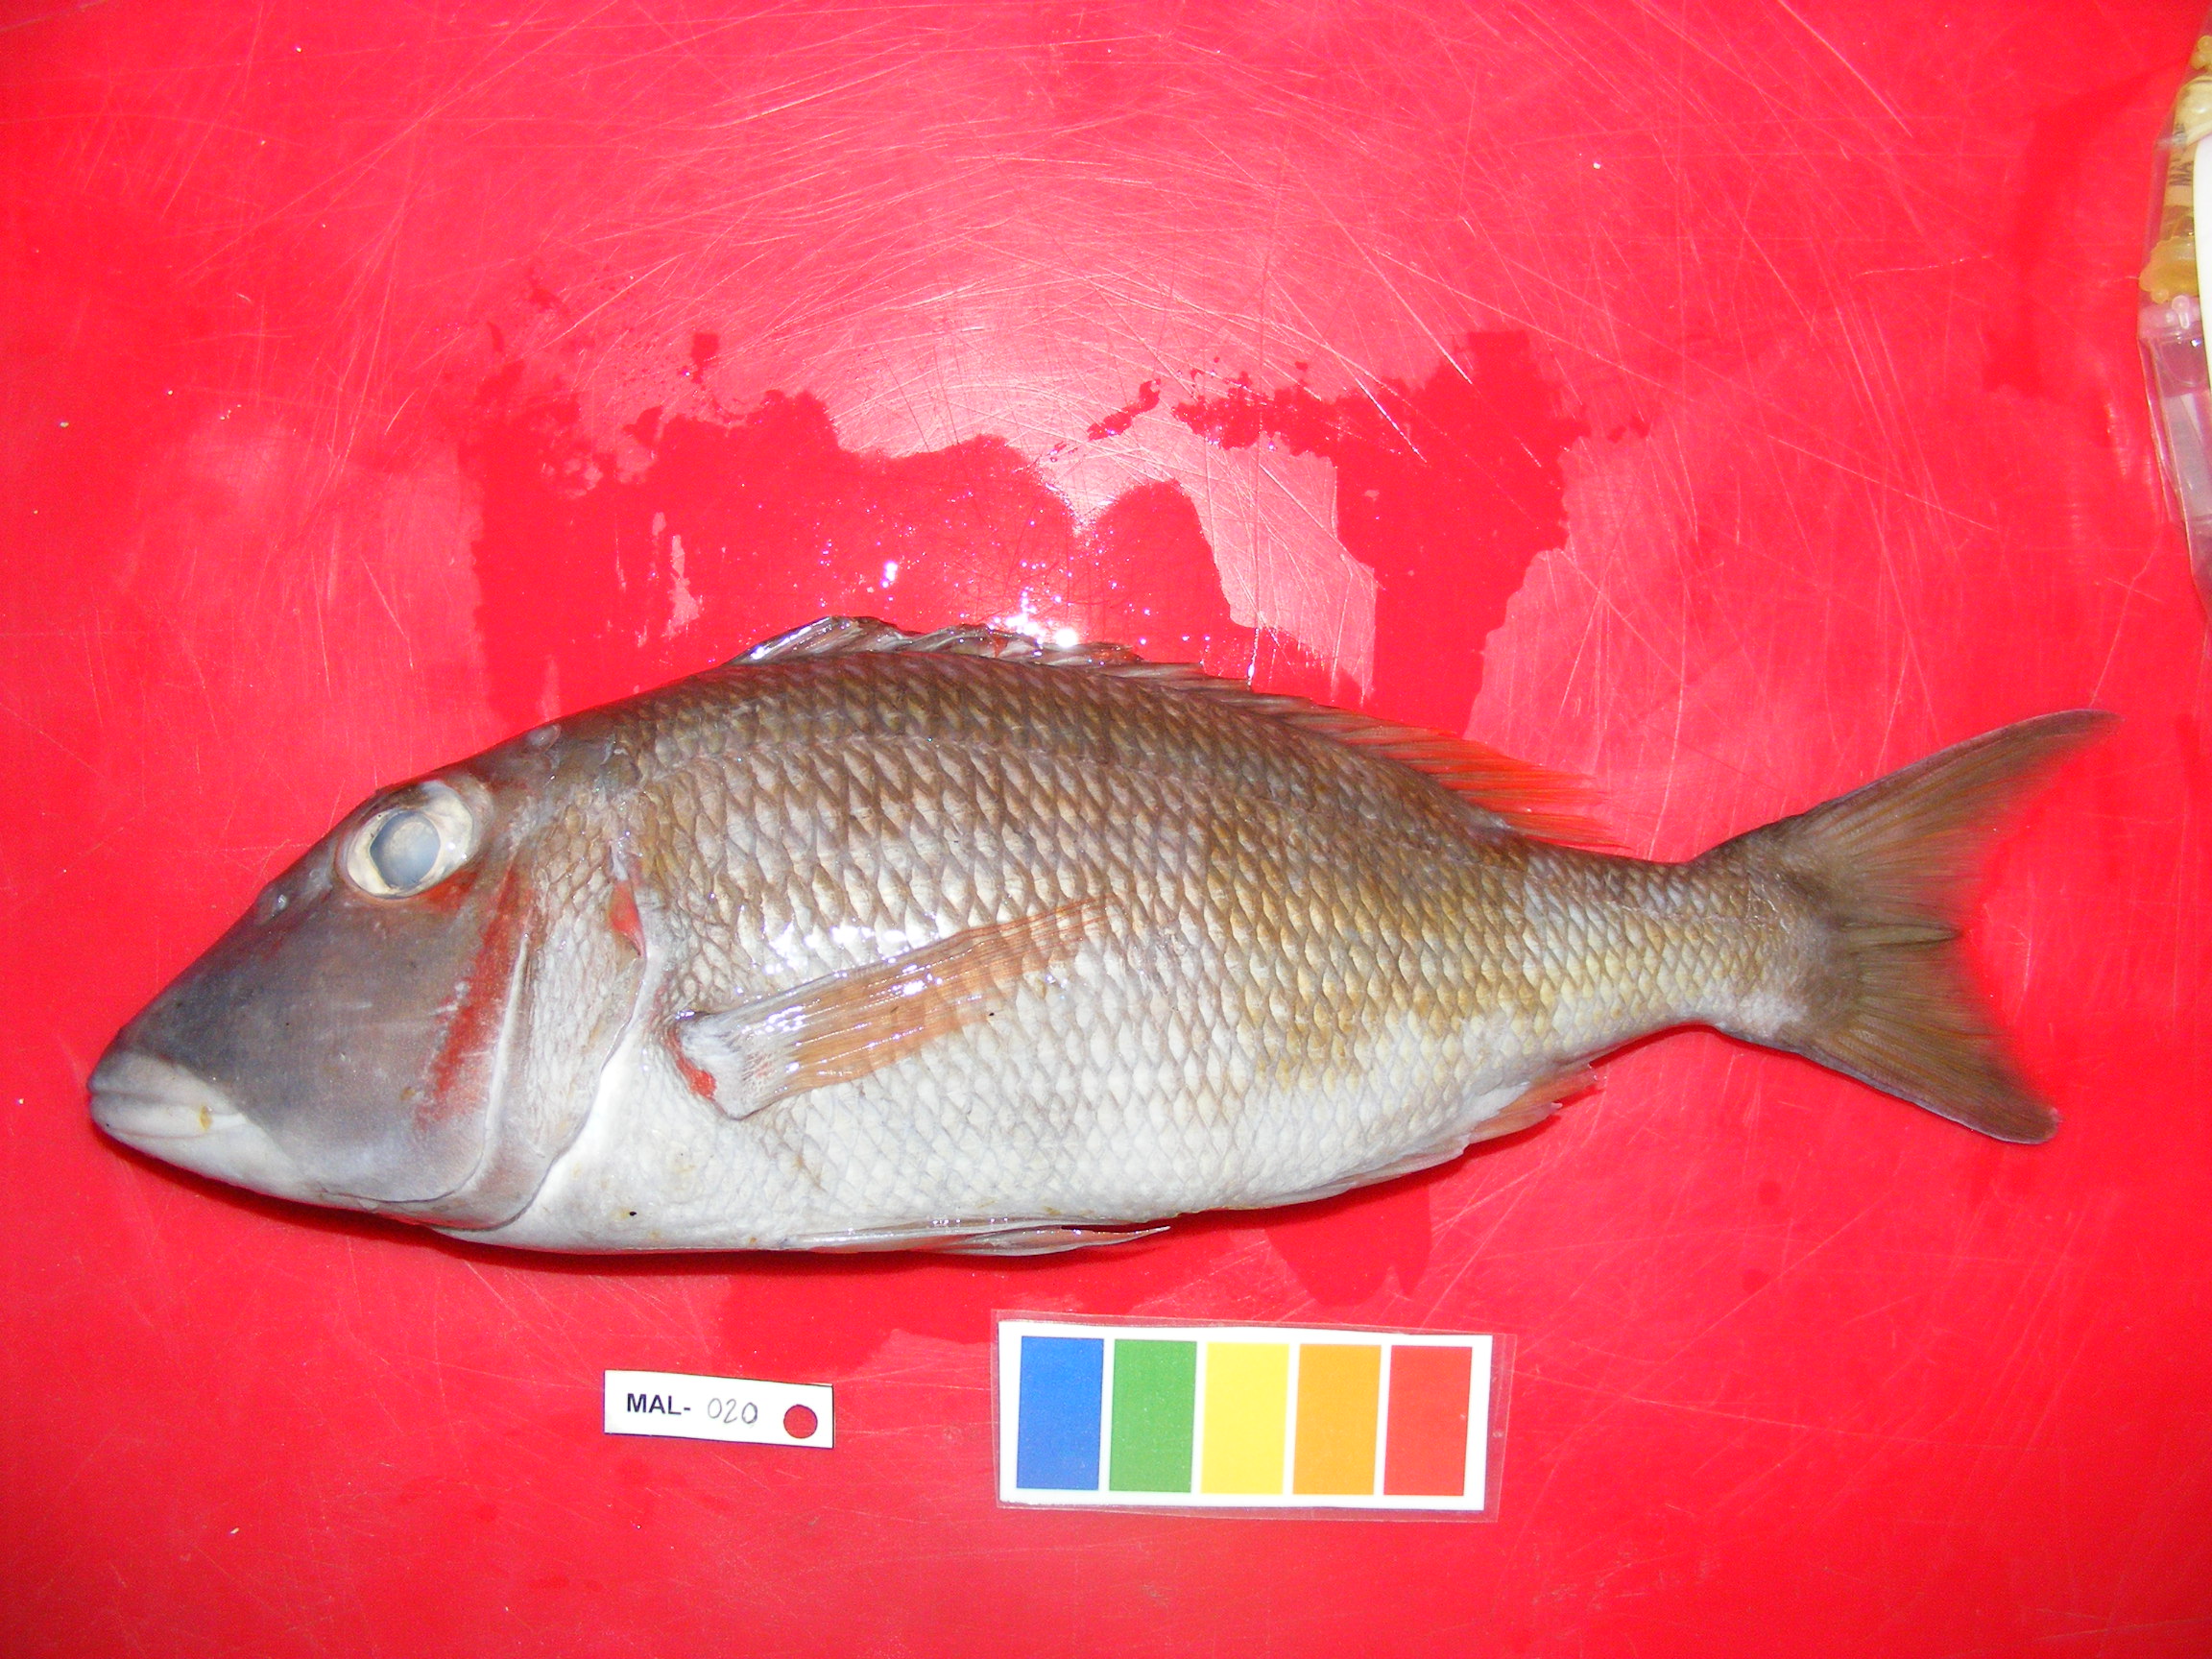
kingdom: Animalia
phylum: Chordata
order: Perciformes
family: Lethrinidae
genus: Lethrinus
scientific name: Lethrinus
